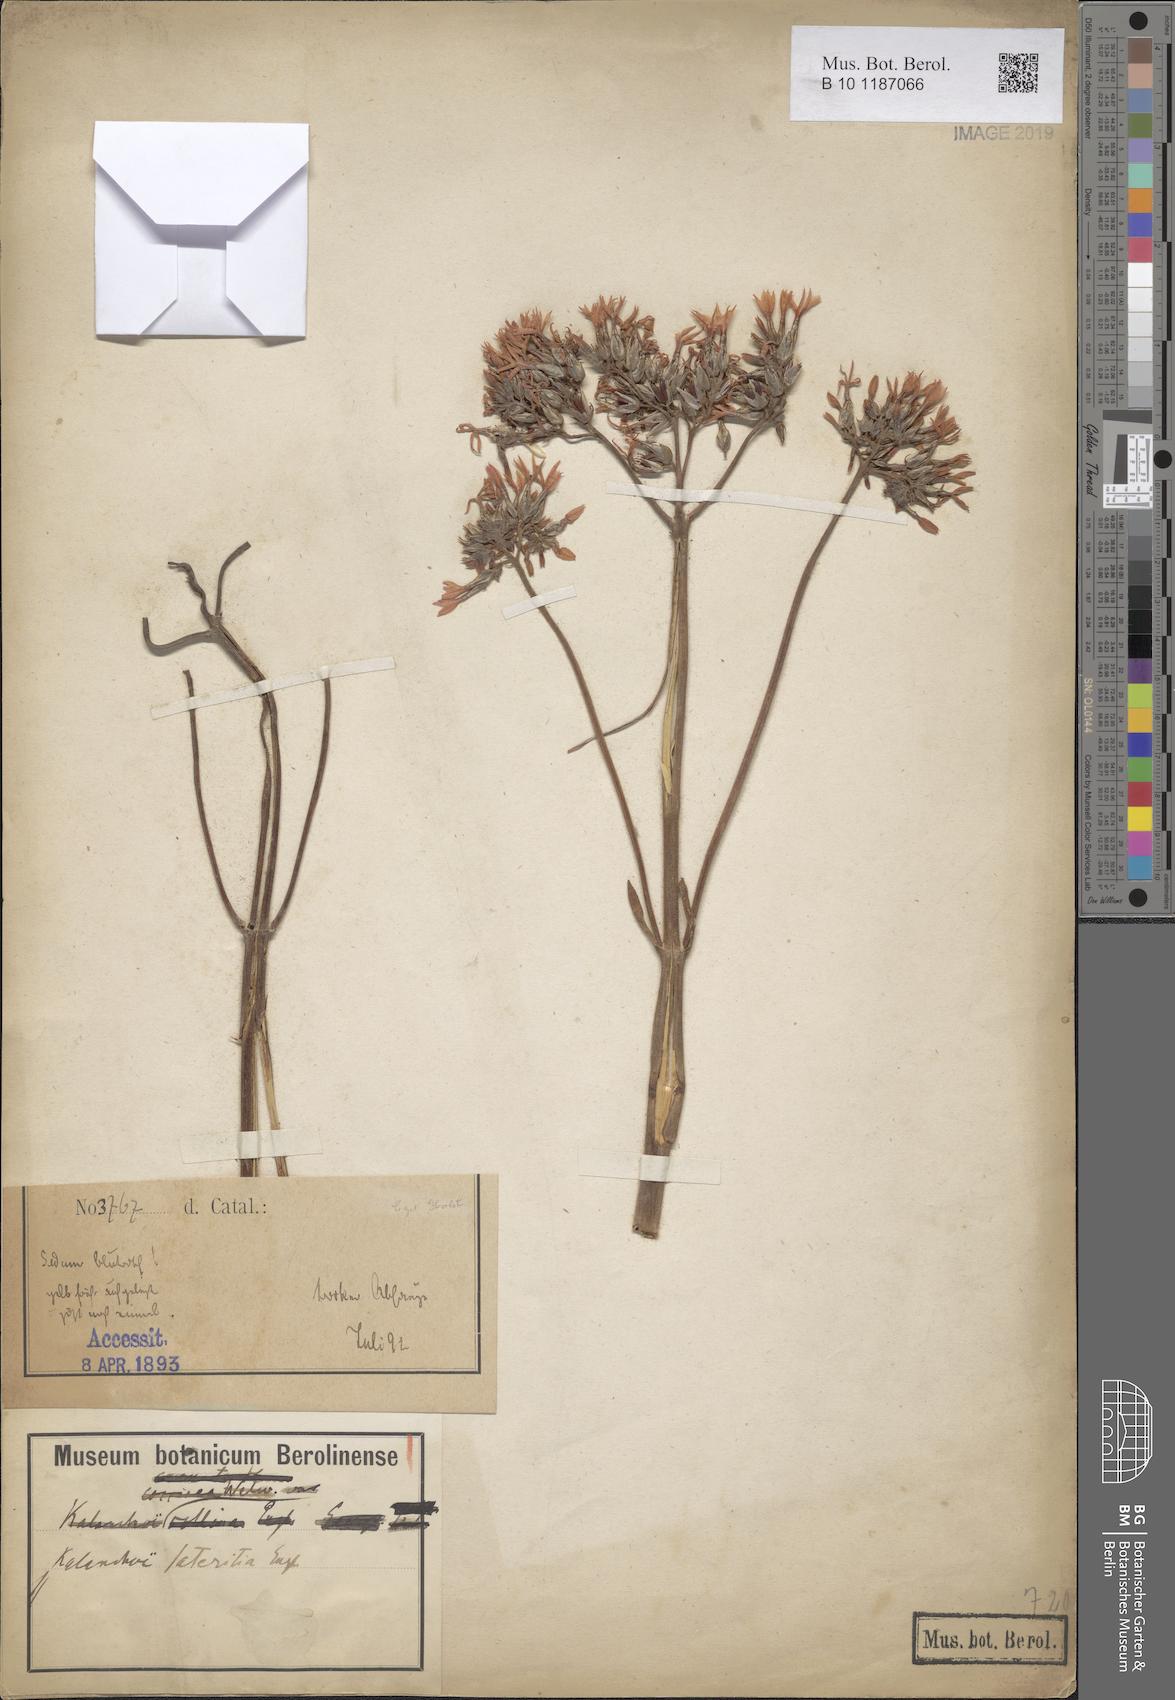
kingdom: Plantae
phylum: Tracheophyta
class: Magnoliopsida
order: Saxifragales
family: Crassulaceae
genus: Kalanchoe
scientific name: Kalanchoe lateritia
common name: Kalanchoe
